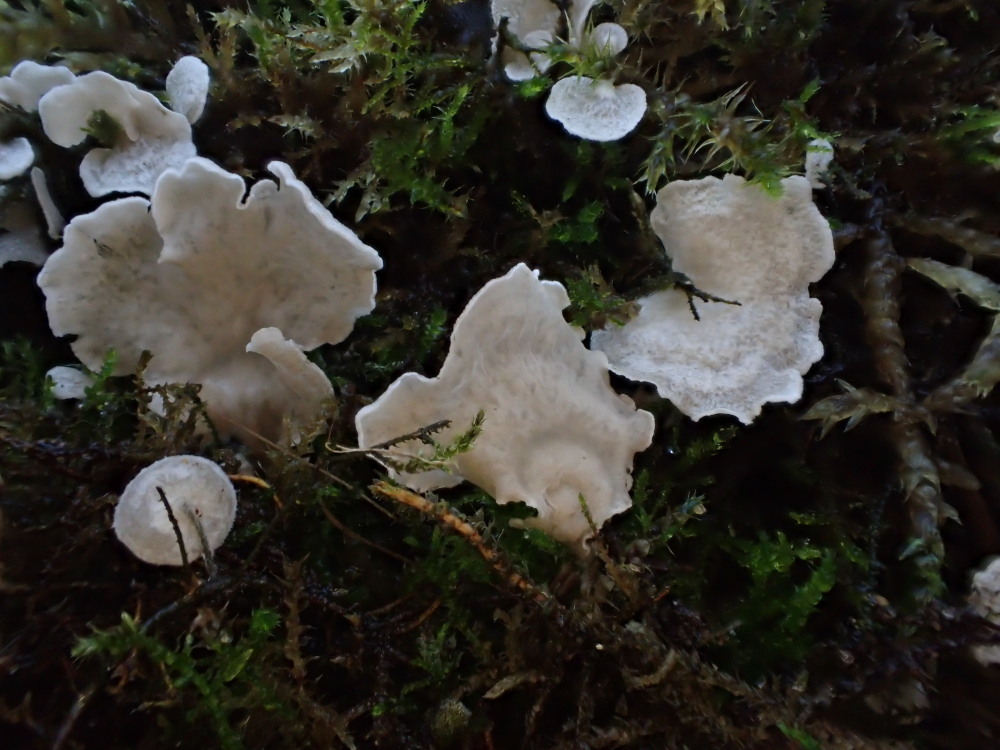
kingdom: Fungi
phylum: Basidiomycota
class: Agaricomycetes
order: Agaricales
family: Hygrophoraceae
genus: Arrhenia
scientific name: Arrhenia retiruga
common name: lille fontænehat
